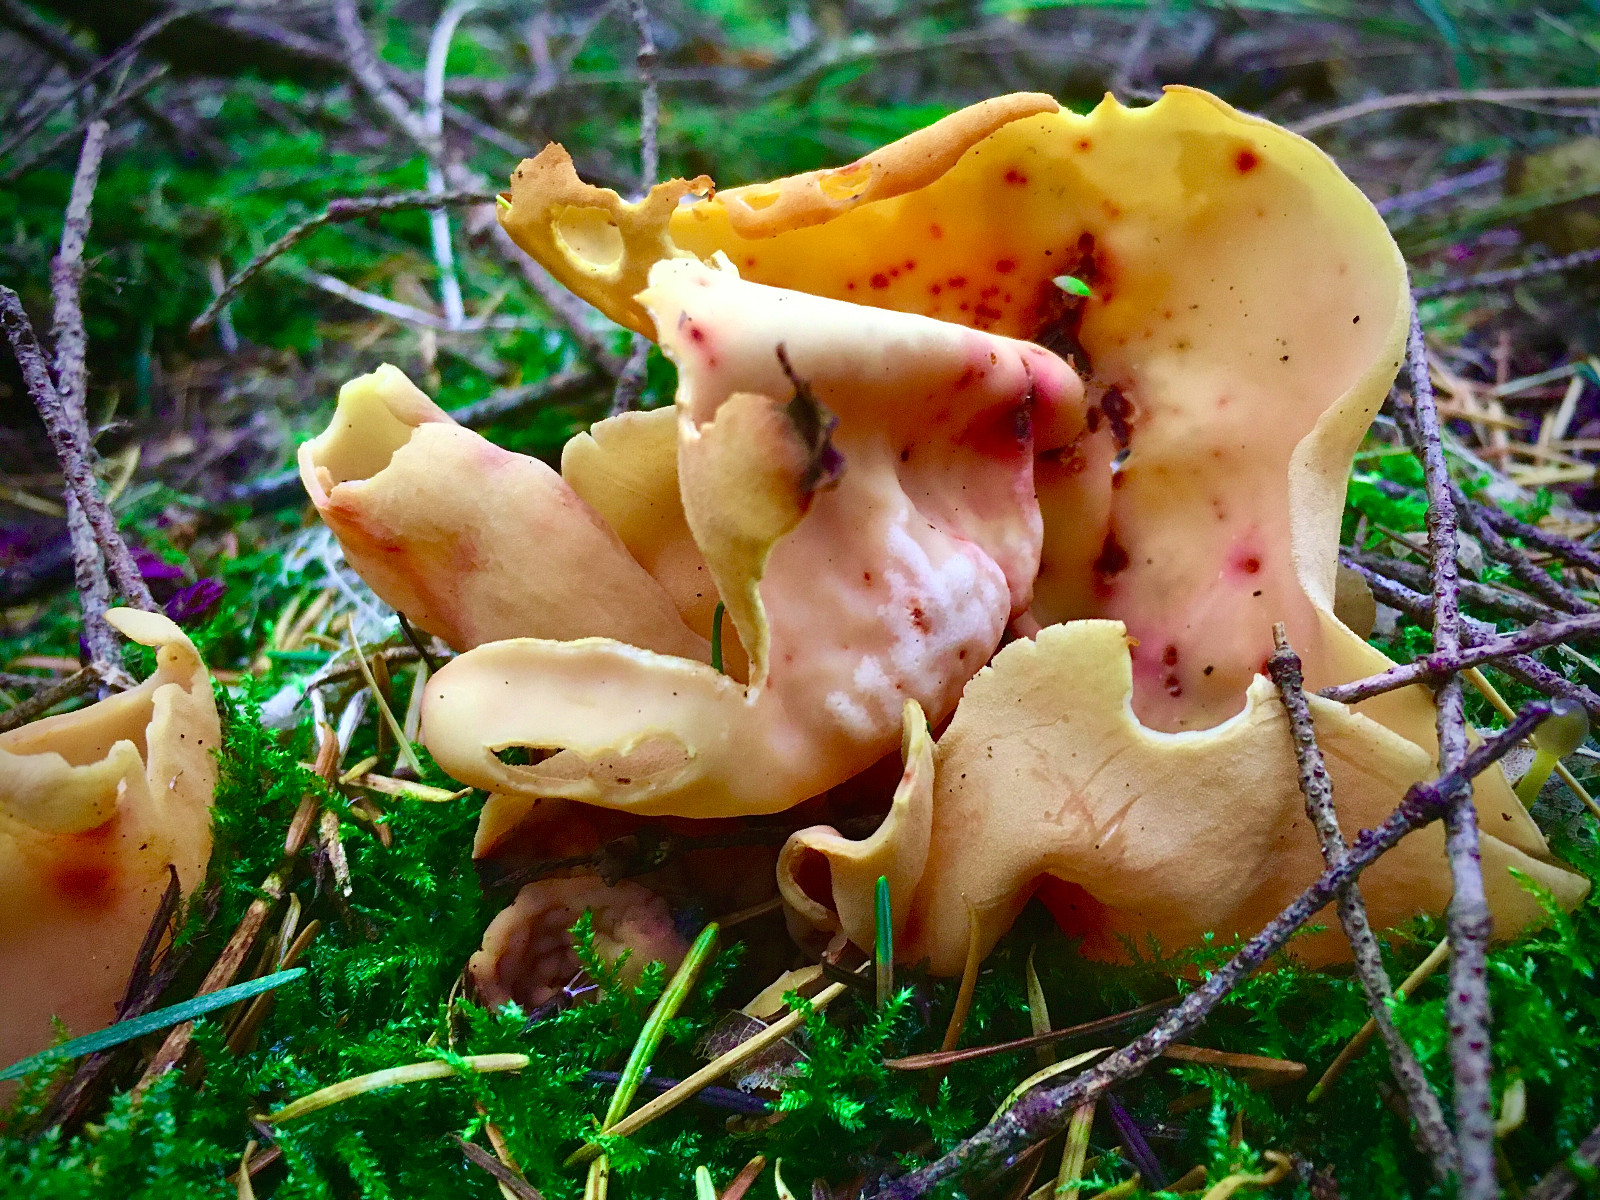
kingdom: Fungi
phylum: Ascomycota
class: Pezizomycetes
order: Pezizales
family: Otideaceae
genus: Otidea
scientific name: Otidea onotica
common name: æsel-ørebæger
